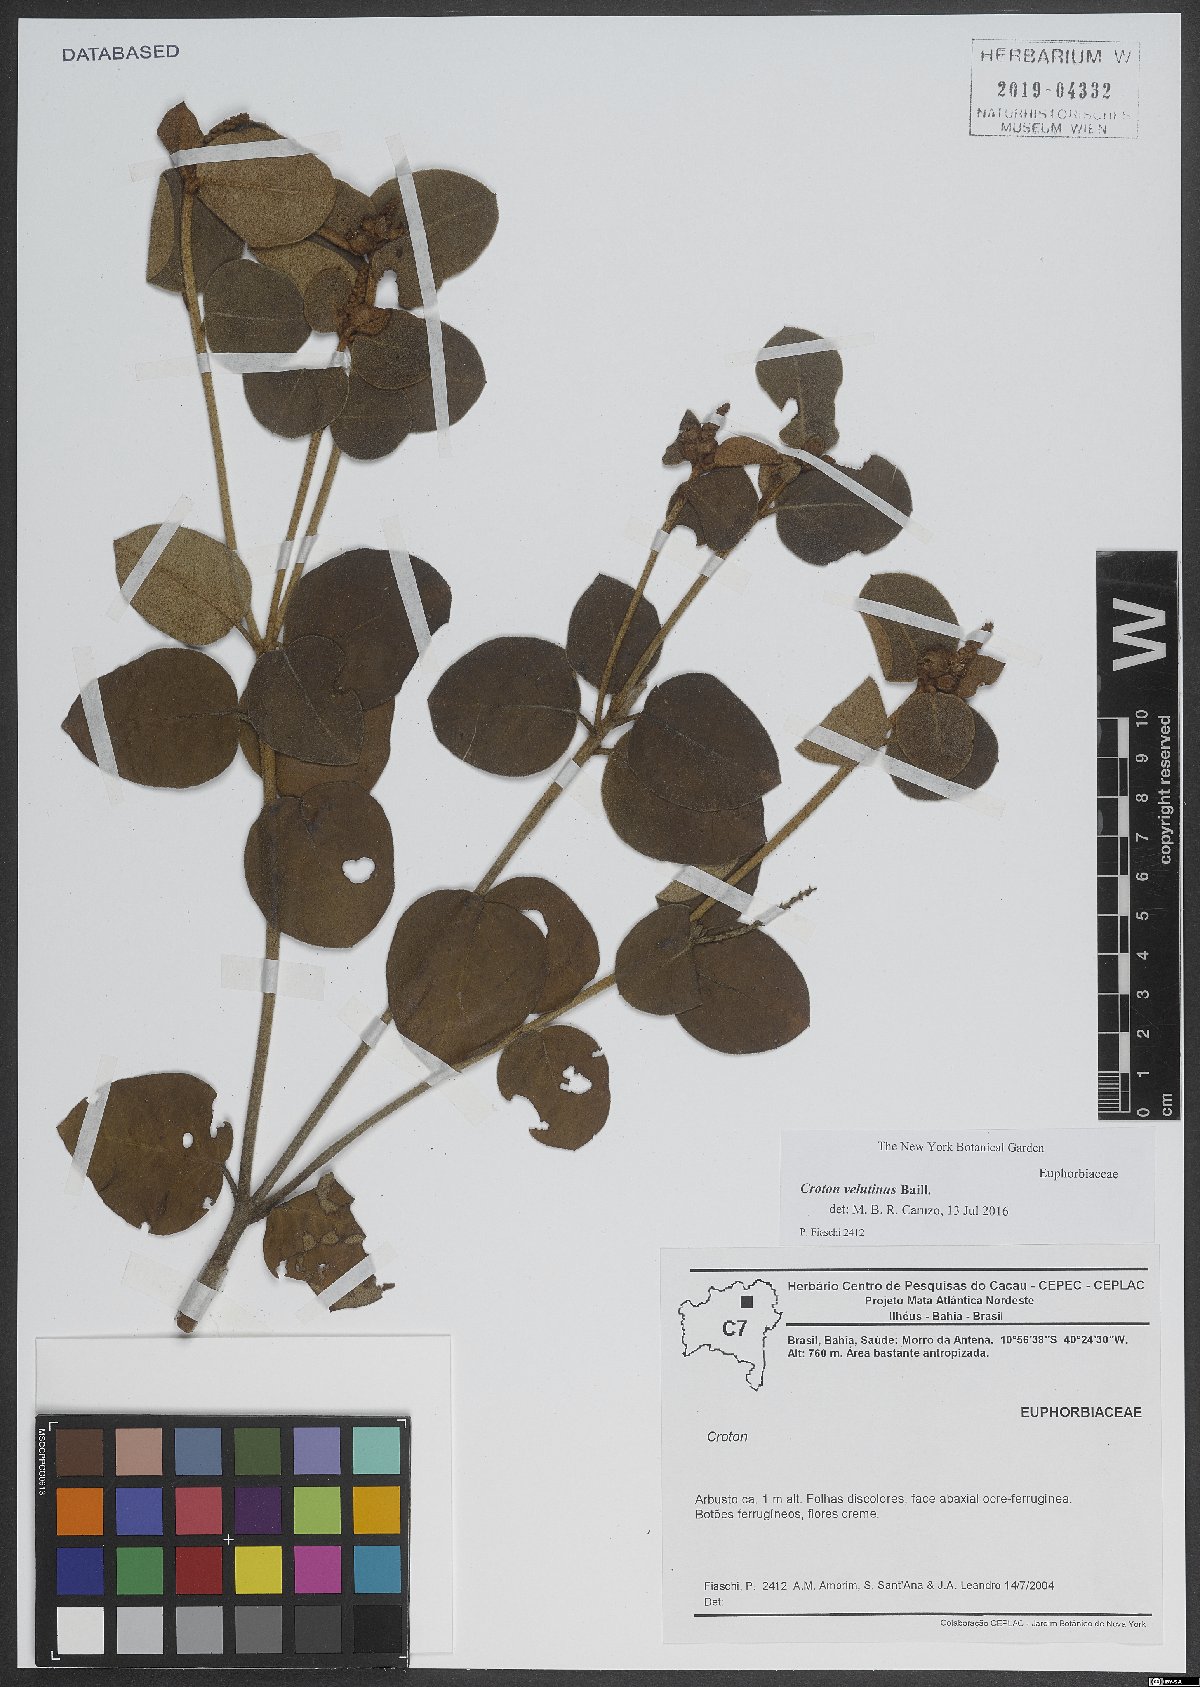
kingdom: Plantae
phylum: Tracheophyta
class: Magnoliopsida
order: Malpighiales
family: Euphorbiaceae
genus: Croton
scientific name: Croton velutinus
